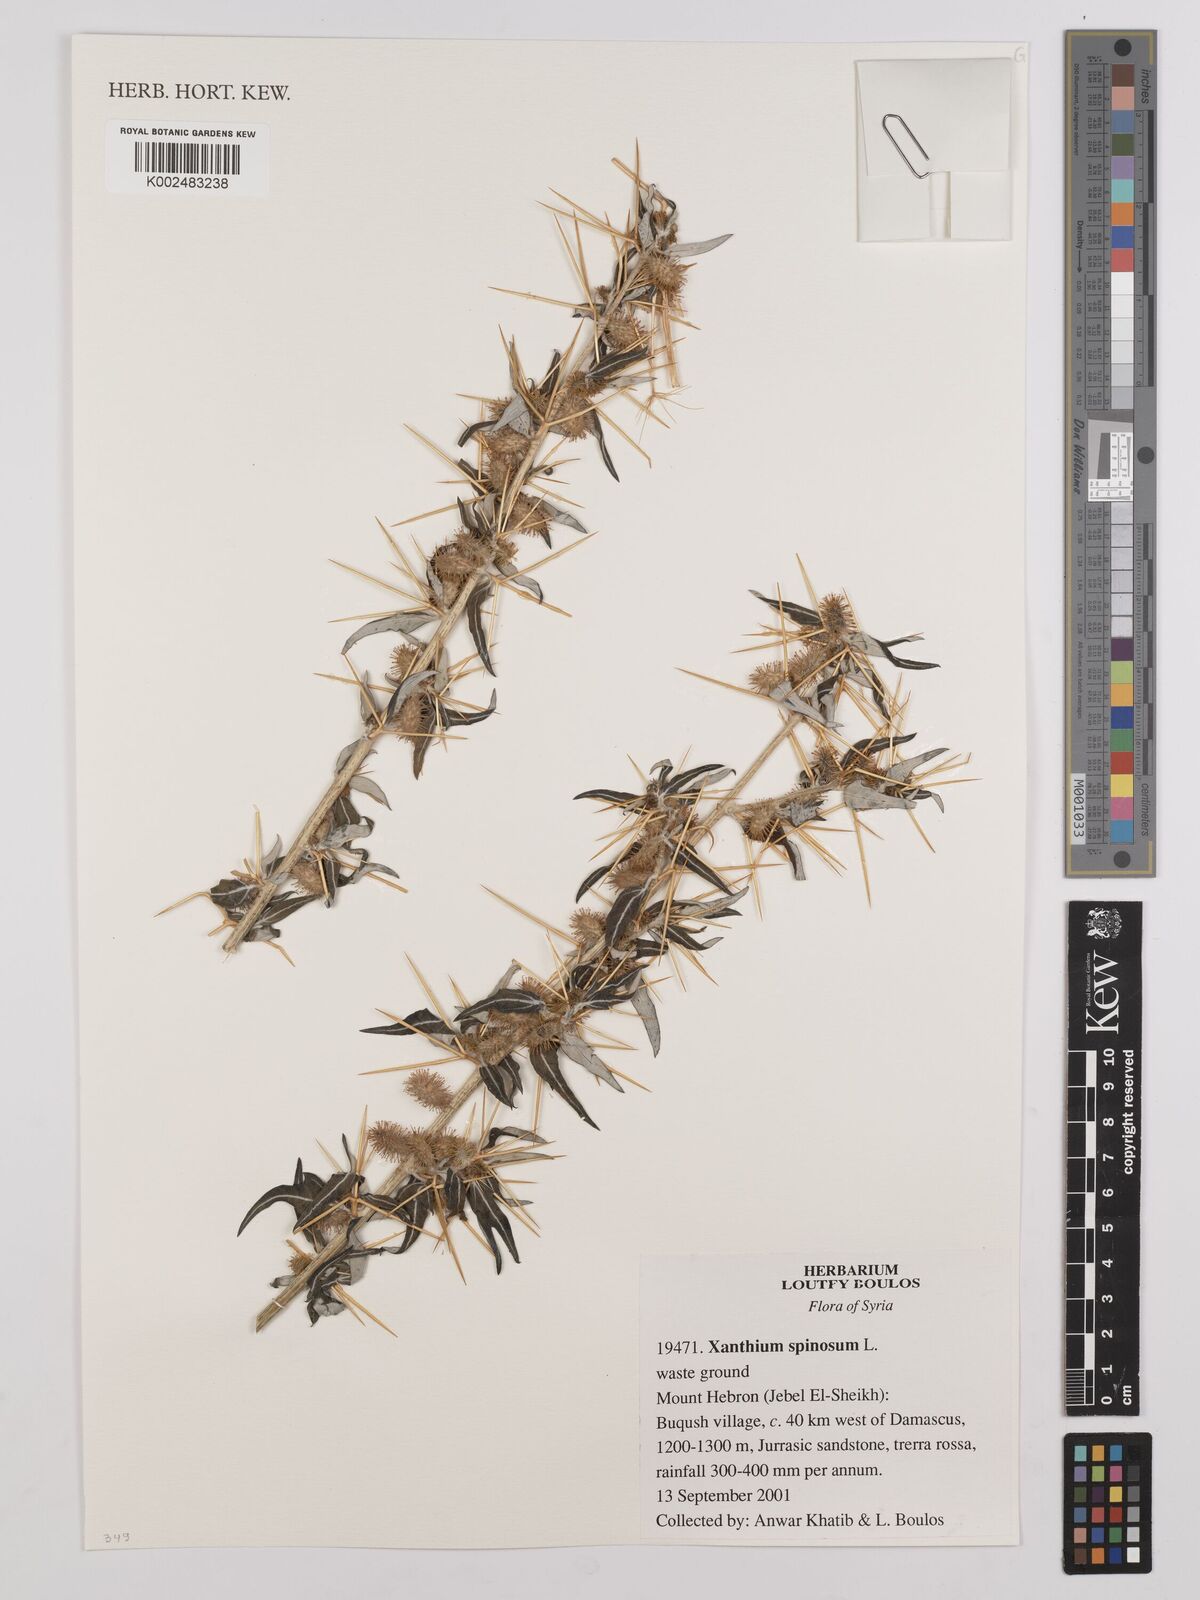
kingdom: Plantae
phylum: Tracheophyta
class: Magnoliopsida
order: Asterales
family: Asteraceae
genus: Xanthium
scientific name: Xanthium spinosum
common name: Spiny cocklebur
